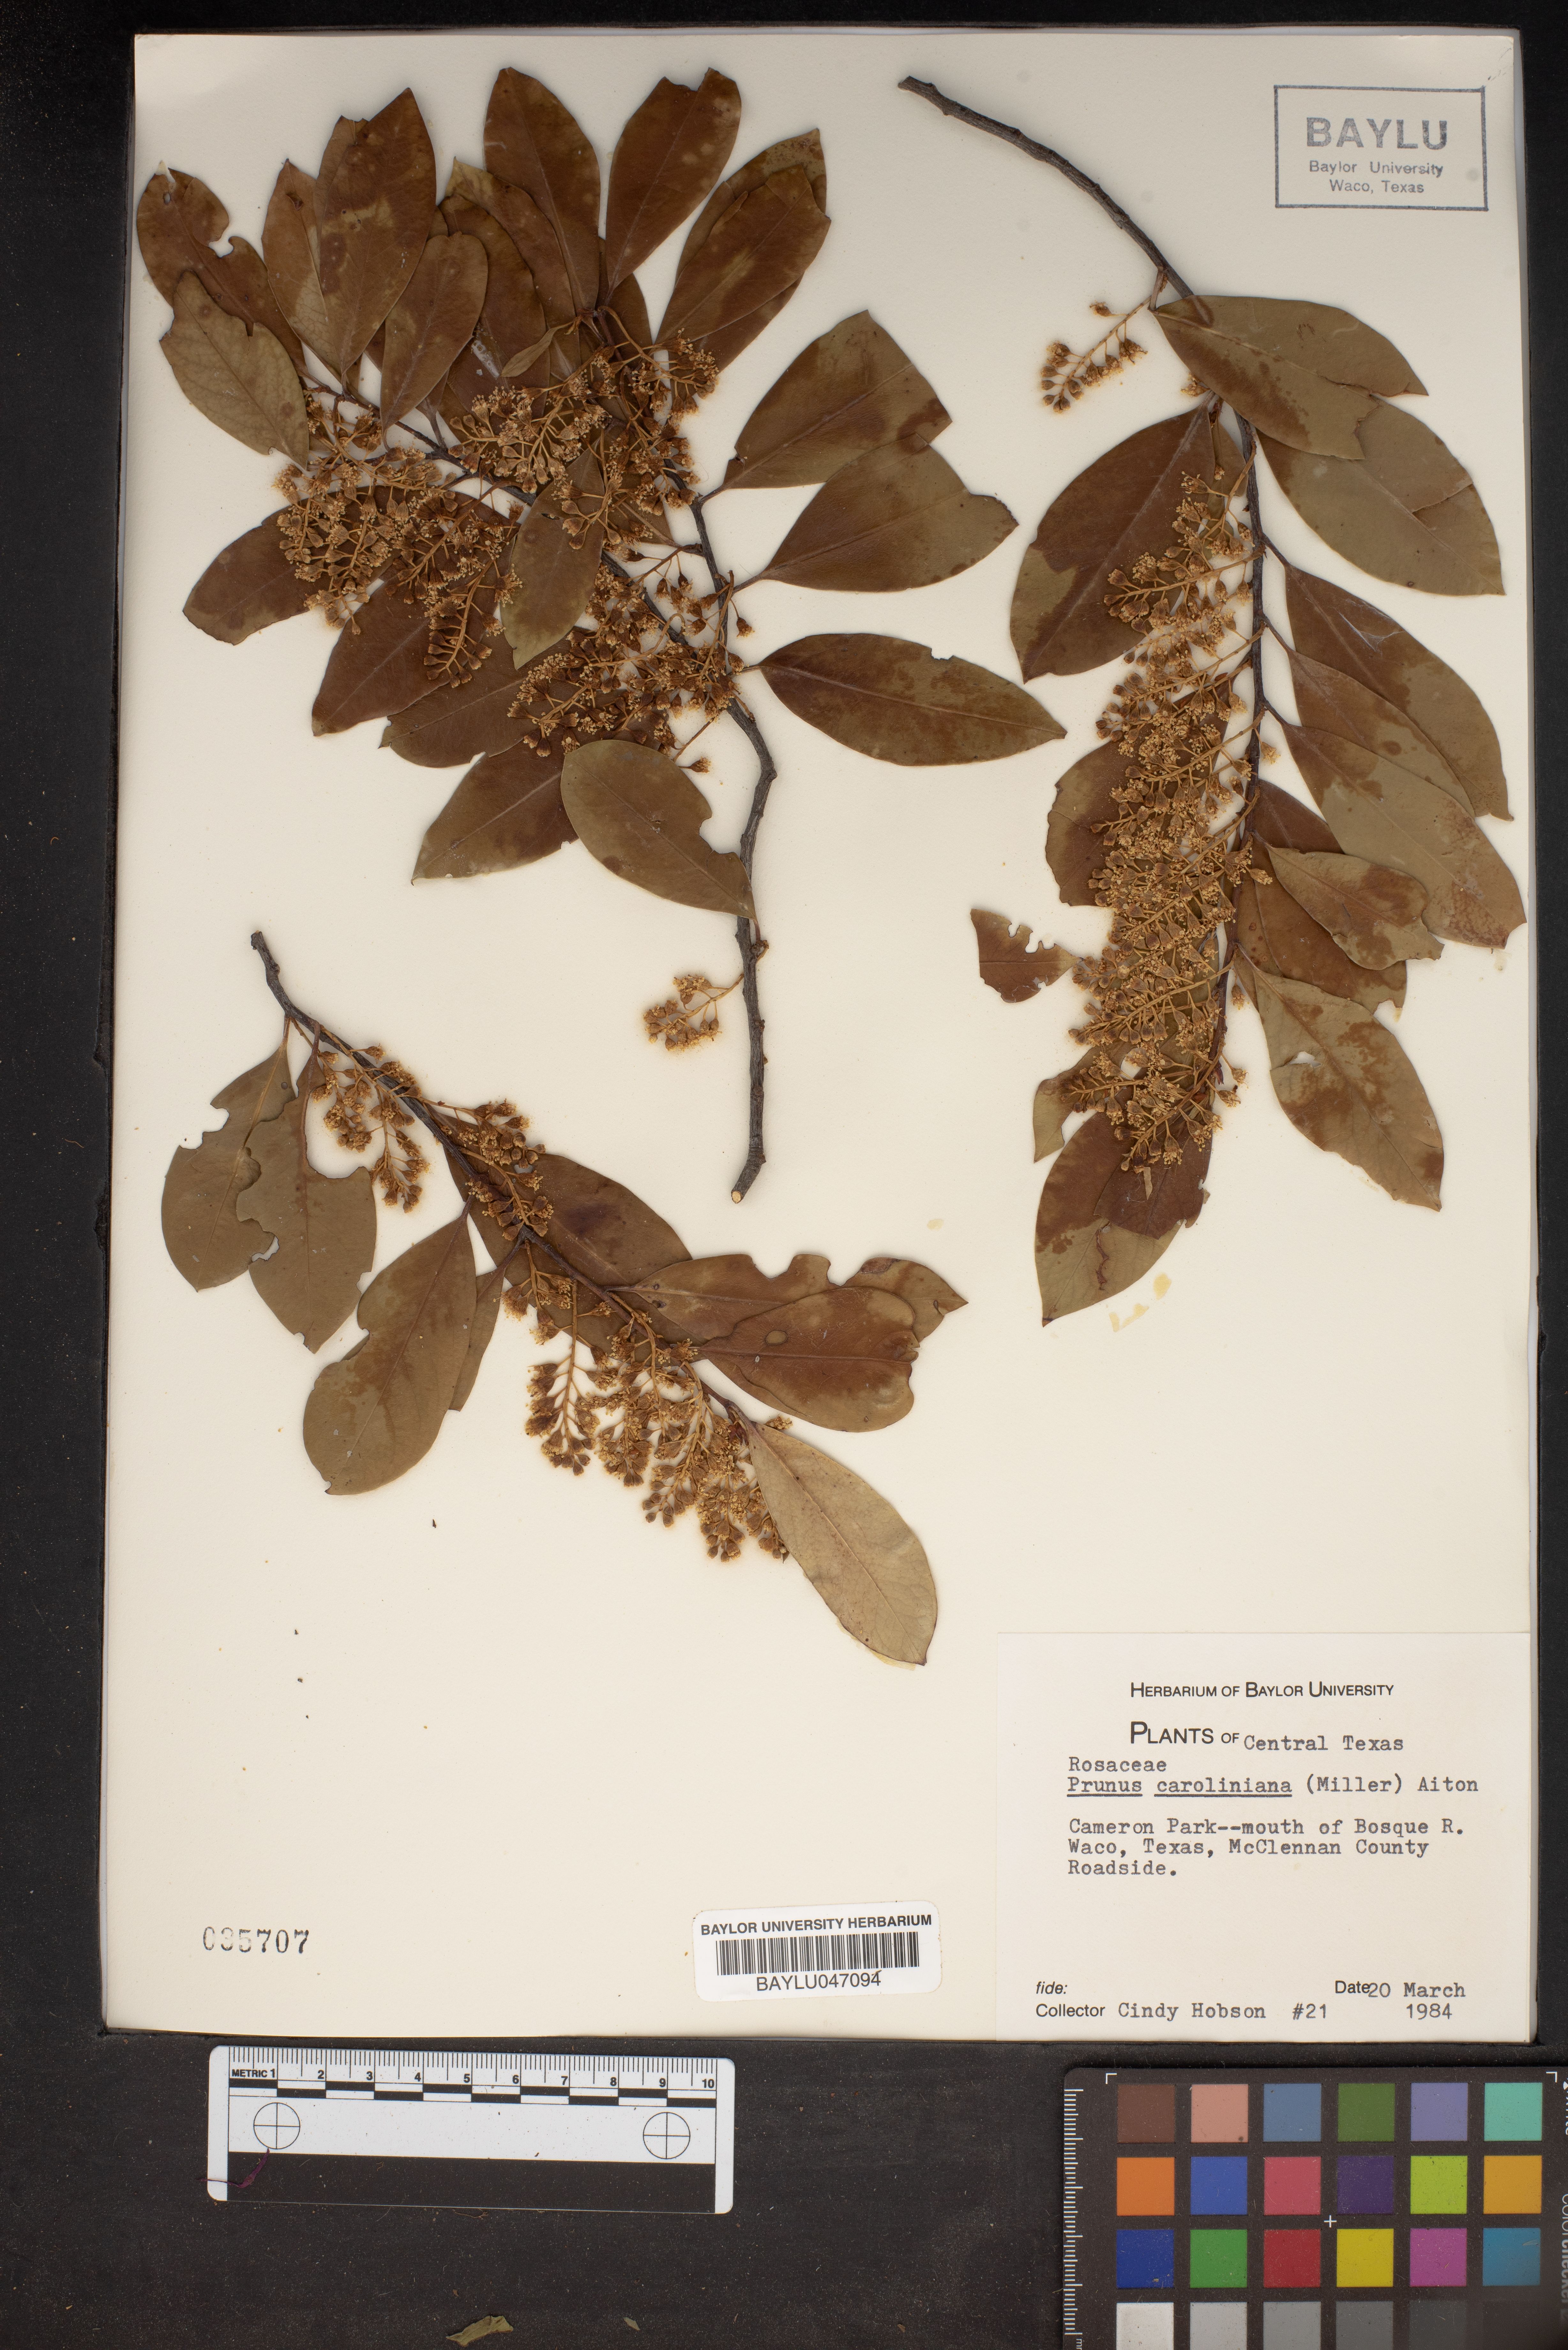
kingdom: Plantae
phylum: Tracheophyta
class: Magnoliopsida
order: Rosales
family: Rosaceae
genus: Prunus
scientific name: Prunus caroliniana
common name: Carolina laurel cherry
